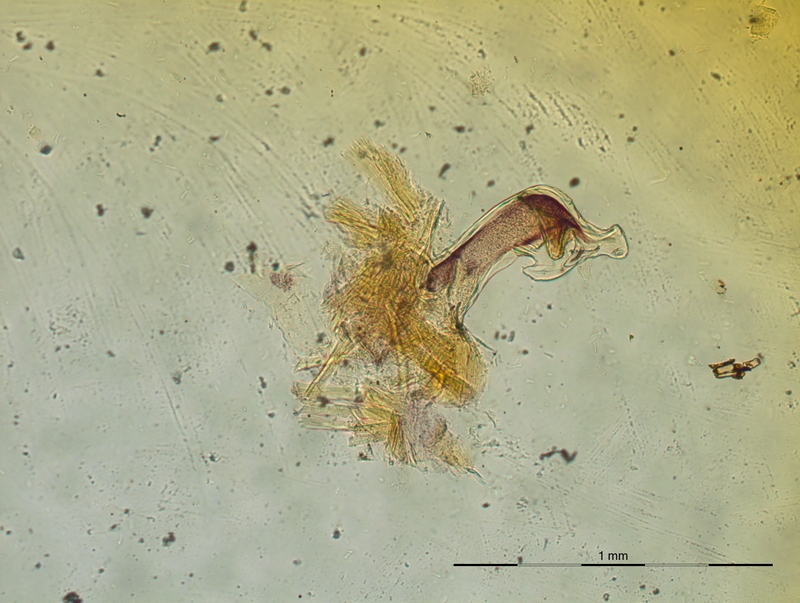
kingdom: Animalia
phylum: Arthropoda
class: Diplopoda
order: Chordeumatida
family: Craspedosomatidae
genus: Craspedosoma
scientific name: Craspedosoma transsilvanicum
